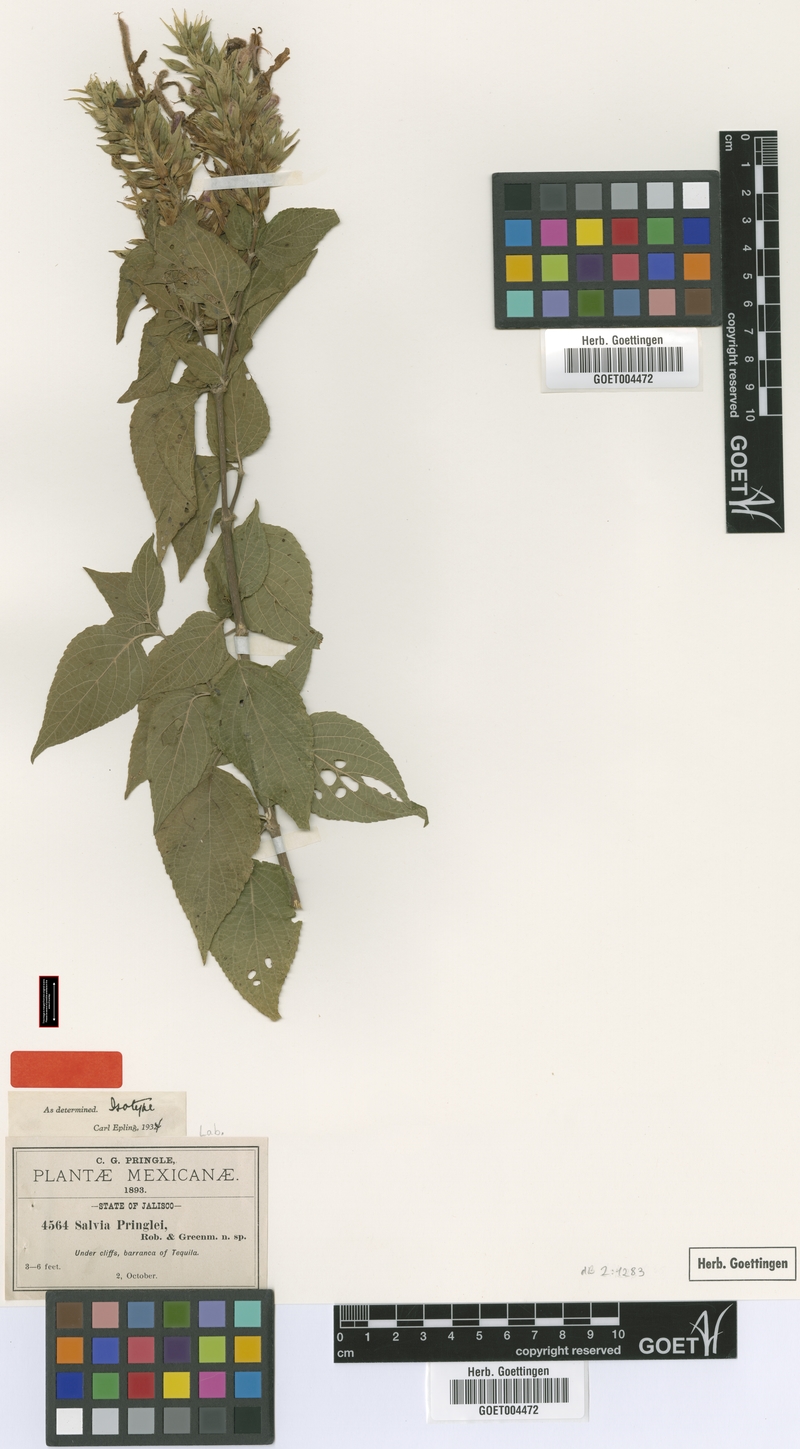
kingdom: Plantae
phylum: Tracheophyta
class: Magnoliopsida
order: Lamiales
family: Lamiaceae
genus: Salvia
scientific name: Salvia pringlei
